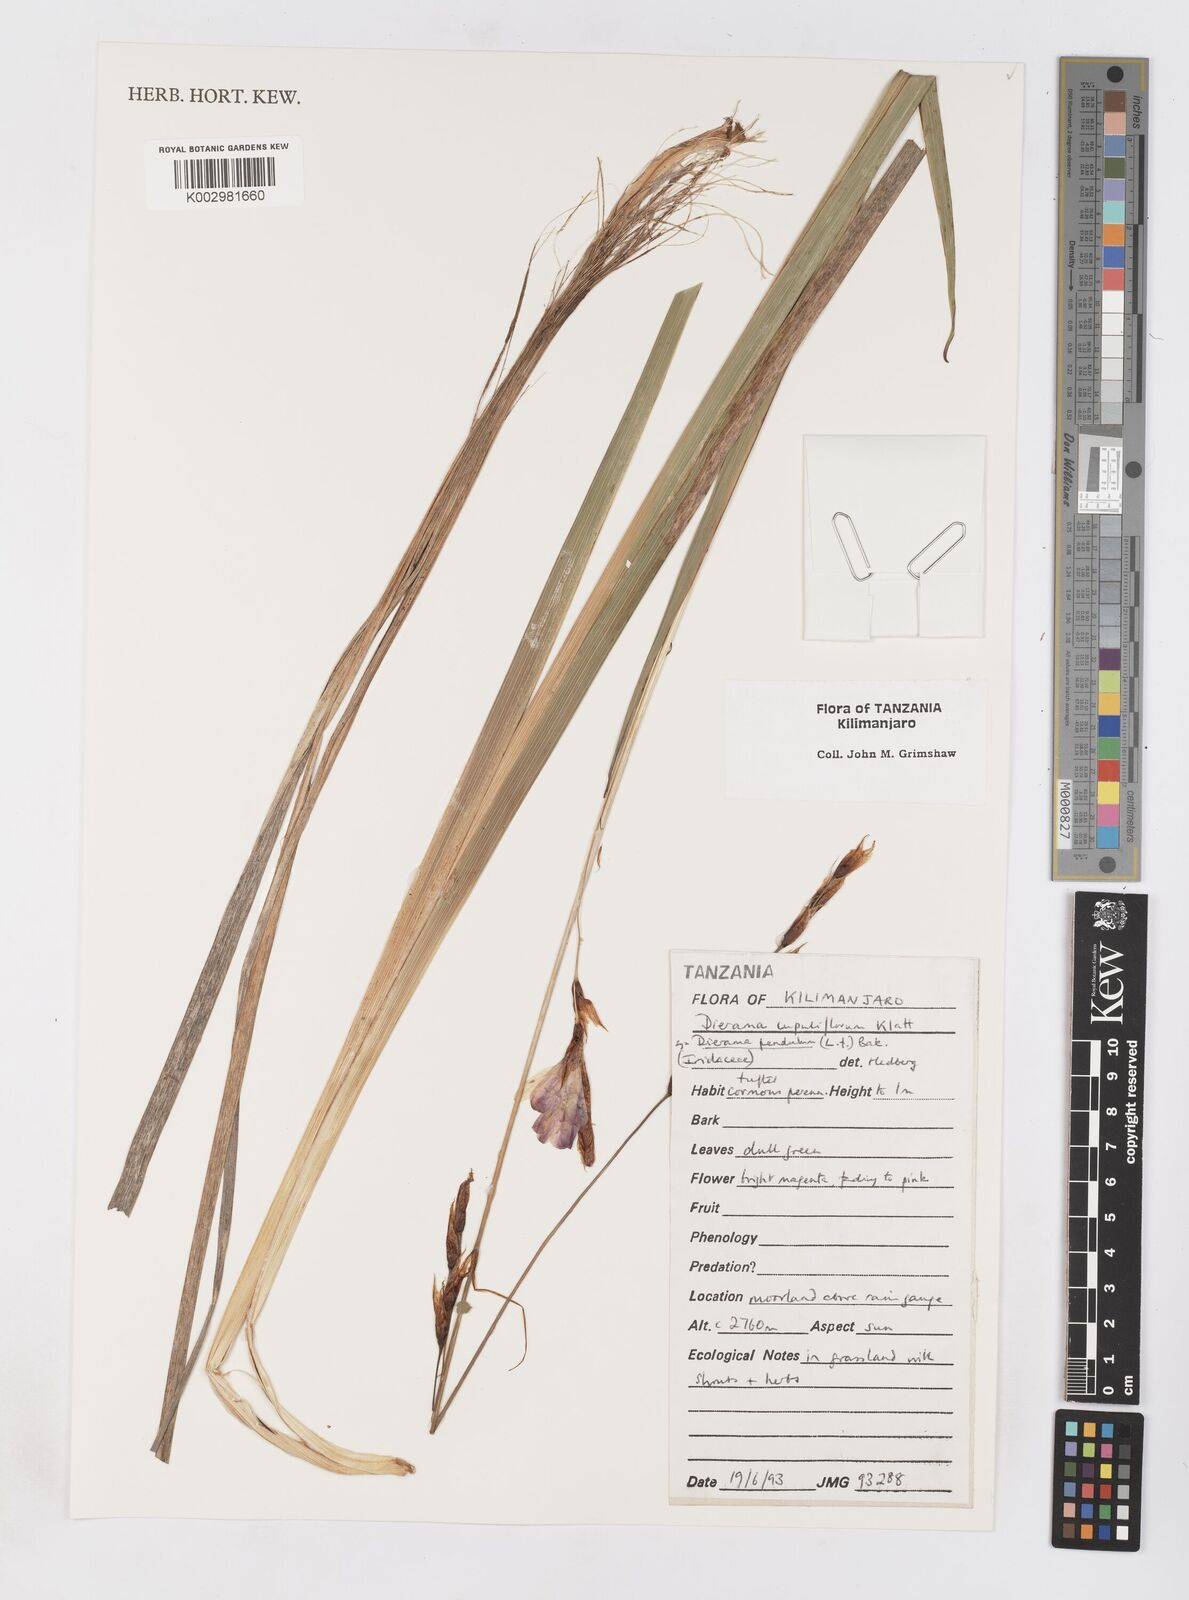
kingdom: Plantae
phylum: Tracheophyta
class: Liliopsida
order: Asparagales
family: Iridaceae
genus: Dierama
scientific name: Dierama cupuliflorum
